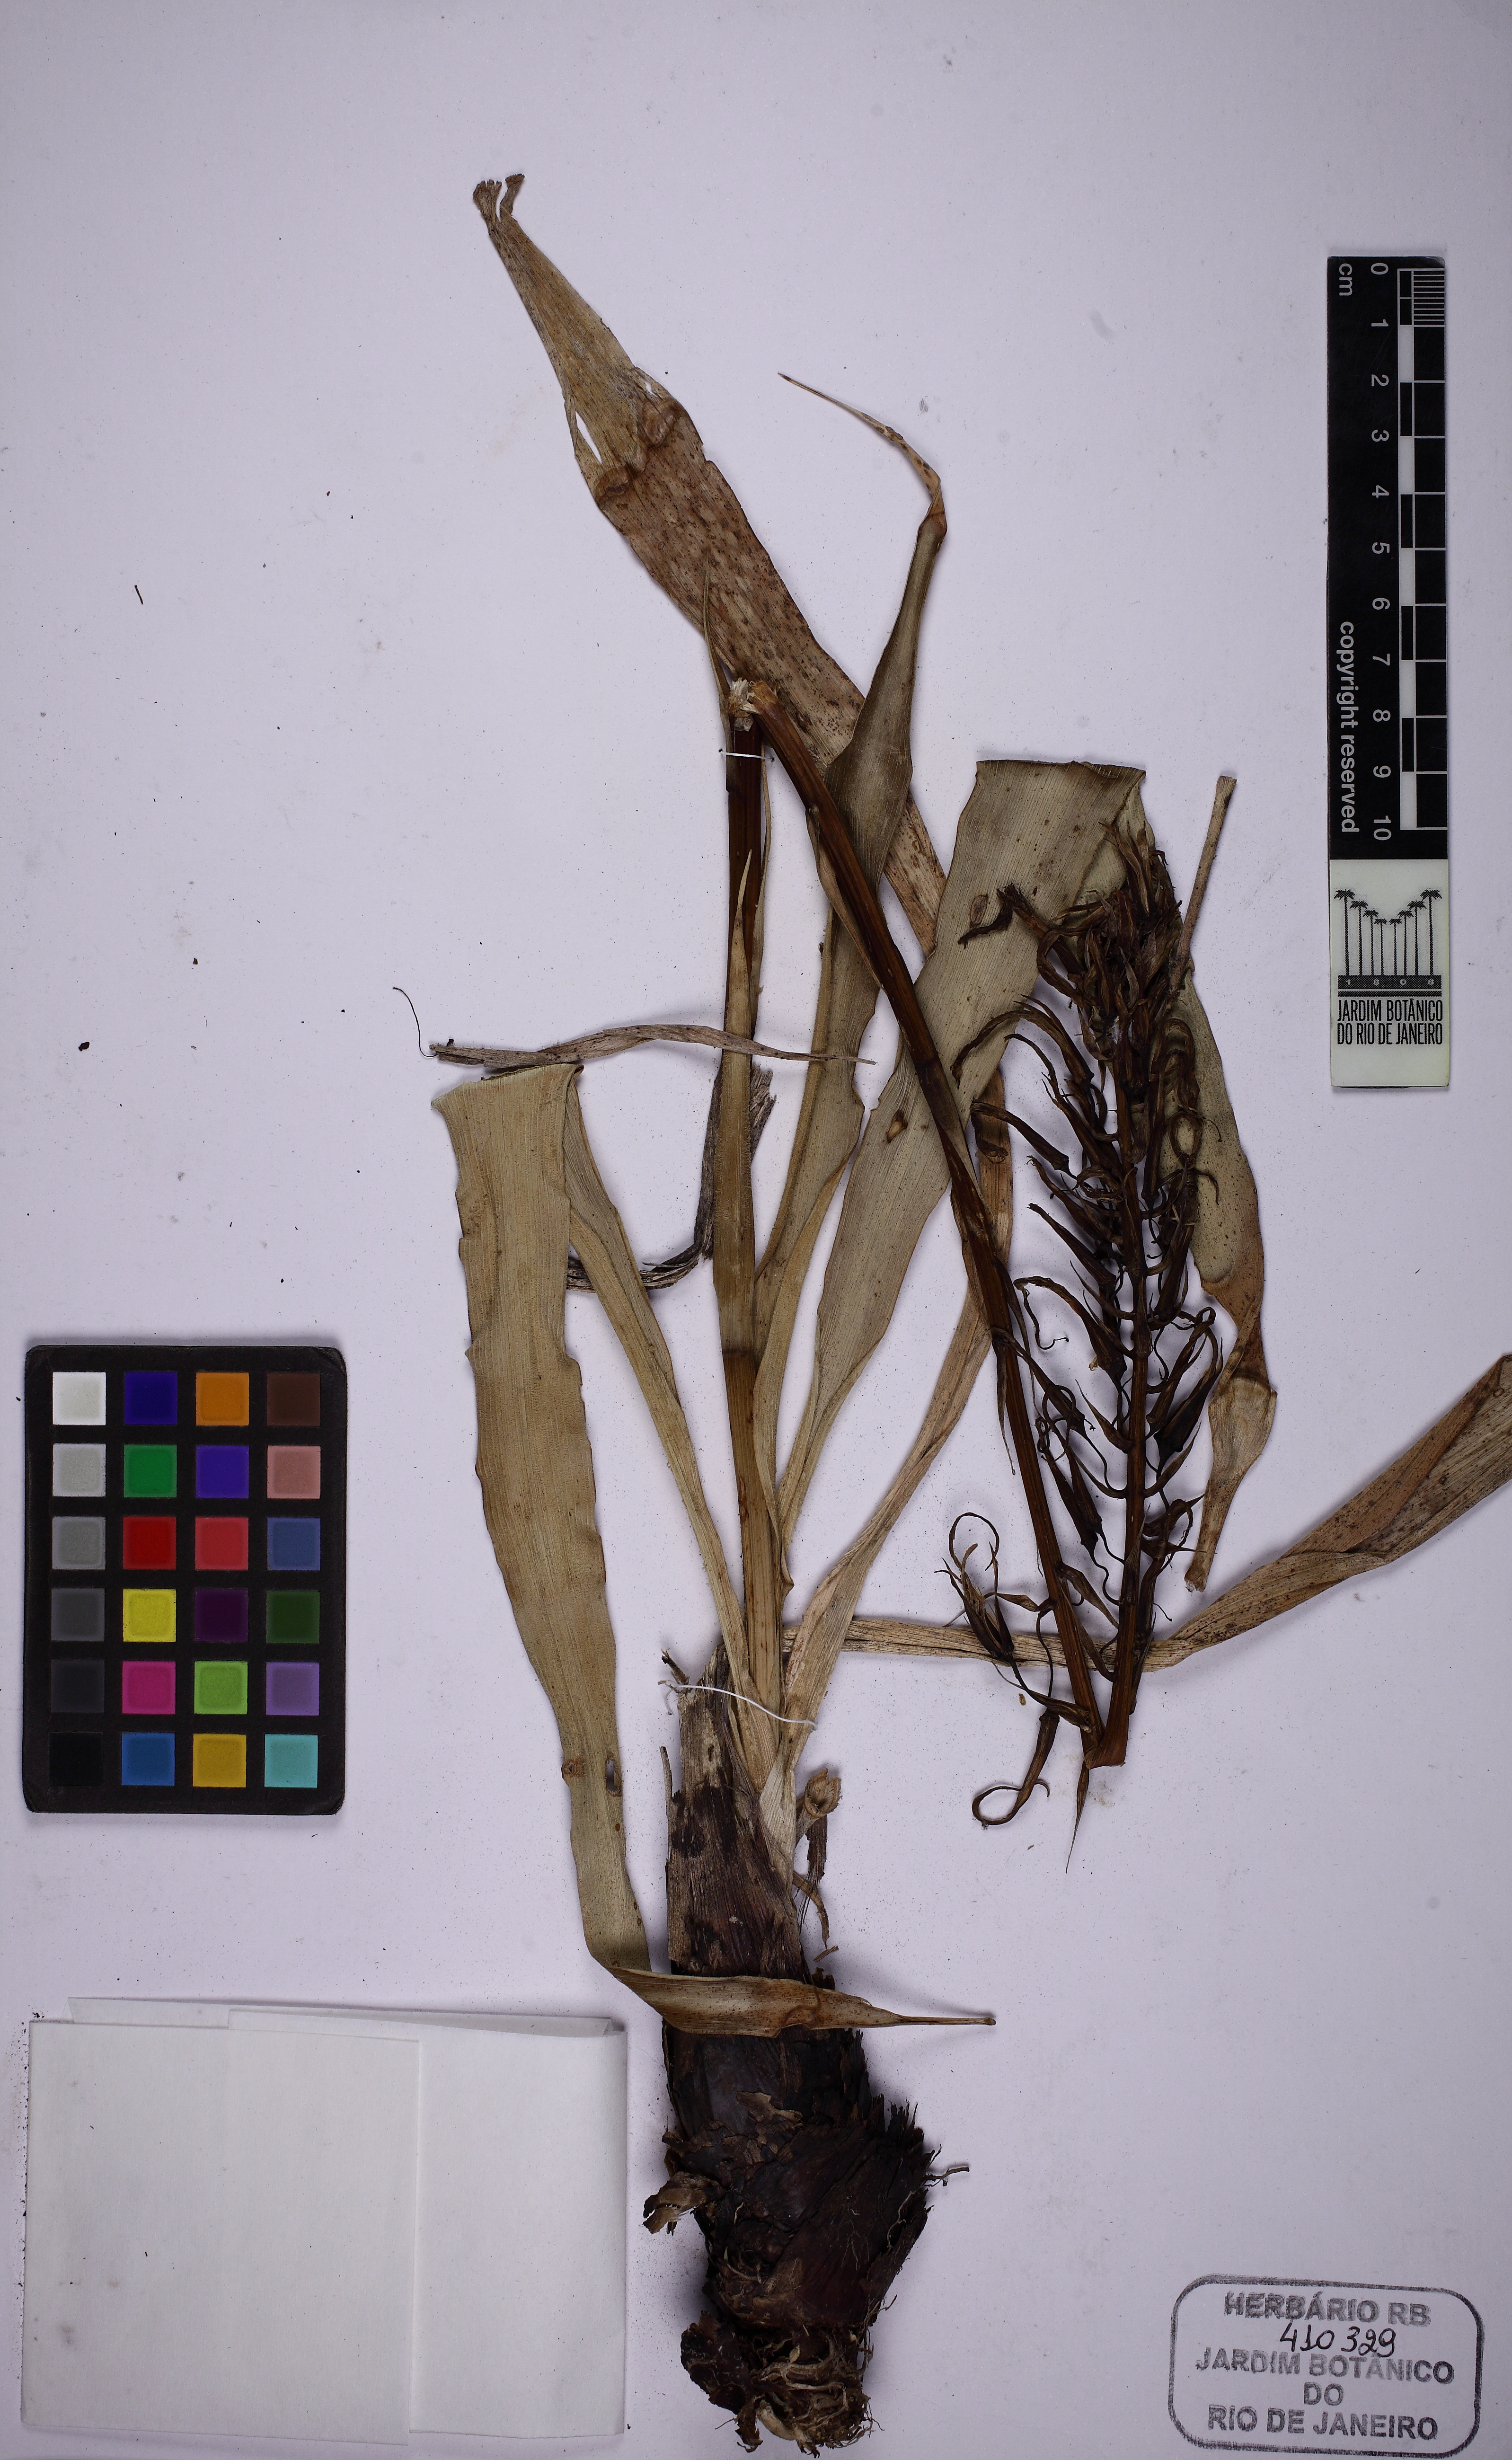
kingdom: Plantae
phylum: Tracheophyta
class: Liliopsida
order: Poales
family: Bromeliaceae
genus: Pitcairnia
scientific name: Pitcairnia flammea
